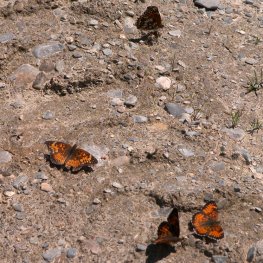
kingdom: Animalia
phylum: Arthropoda
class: Insecta
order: Lepidoptera
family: Nymphalidae
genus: Chlosyne
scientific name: Chlosyne harrisii
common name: Harris's Checkerspot
